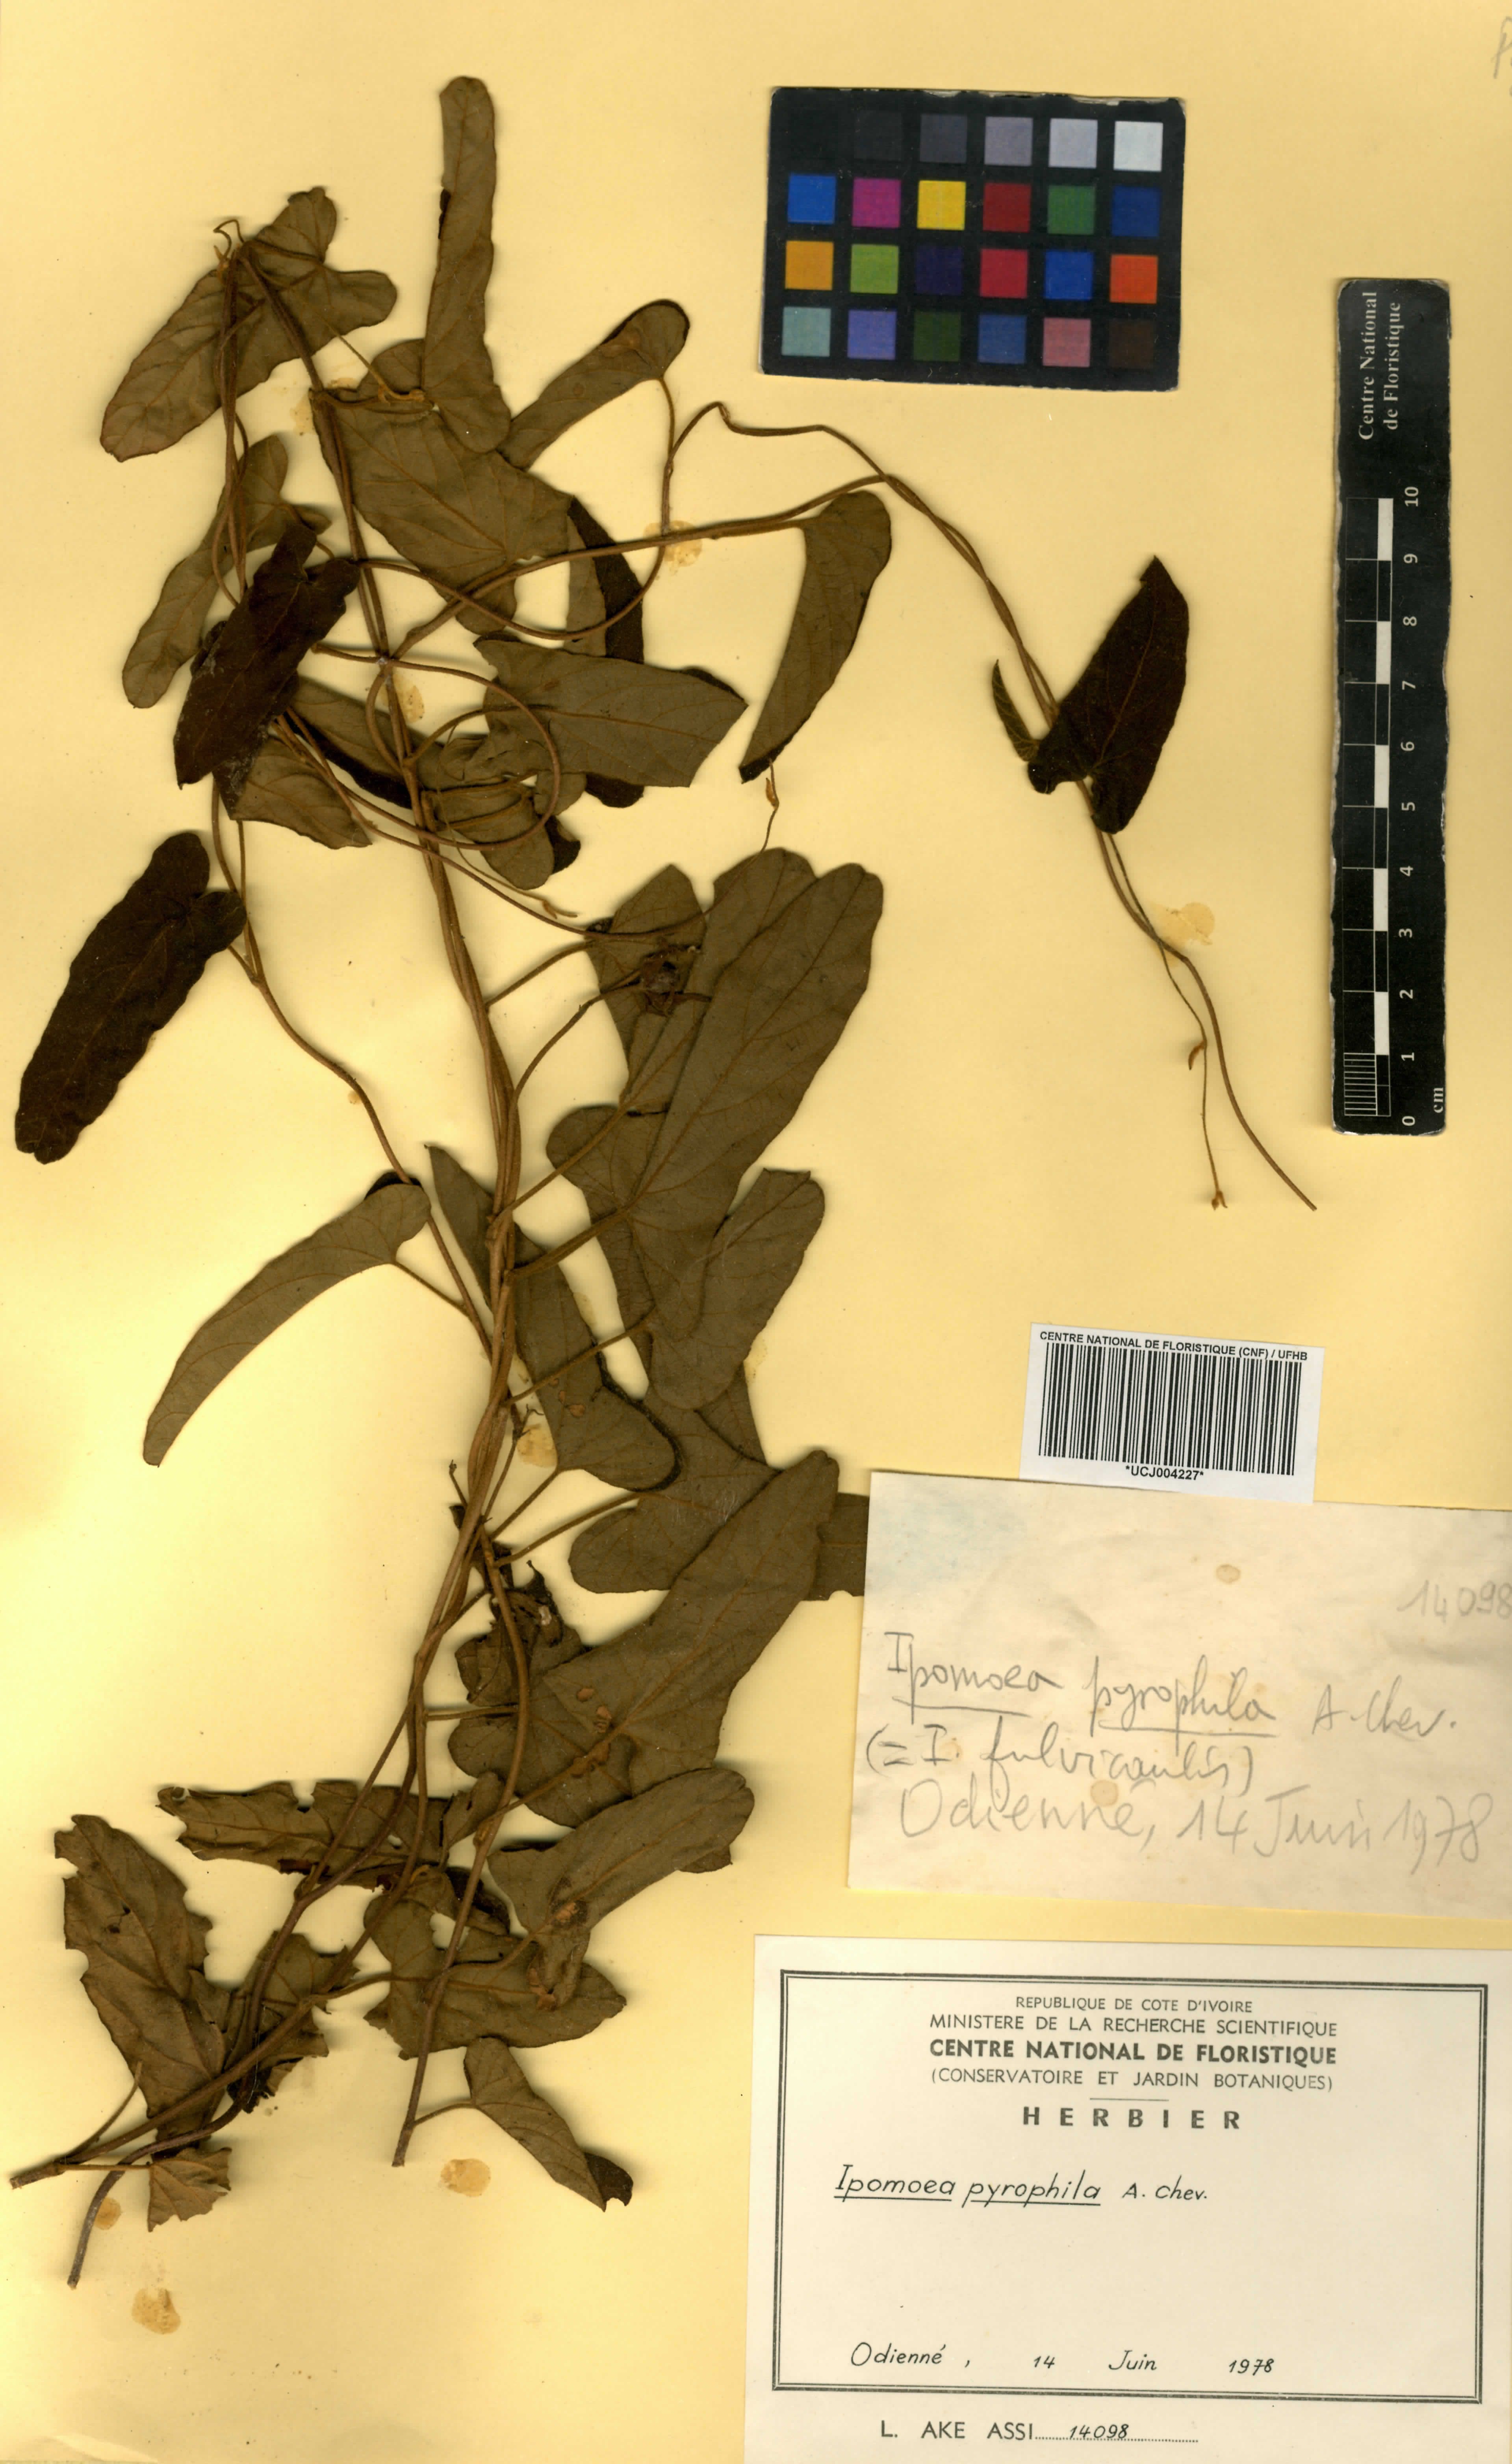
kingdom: Plantae
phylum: Tracheophyta
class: Magnoliopsida
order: Solanales
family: Convolvulaceae
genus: Ipomoea
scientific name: Ipomoea pyrophila
